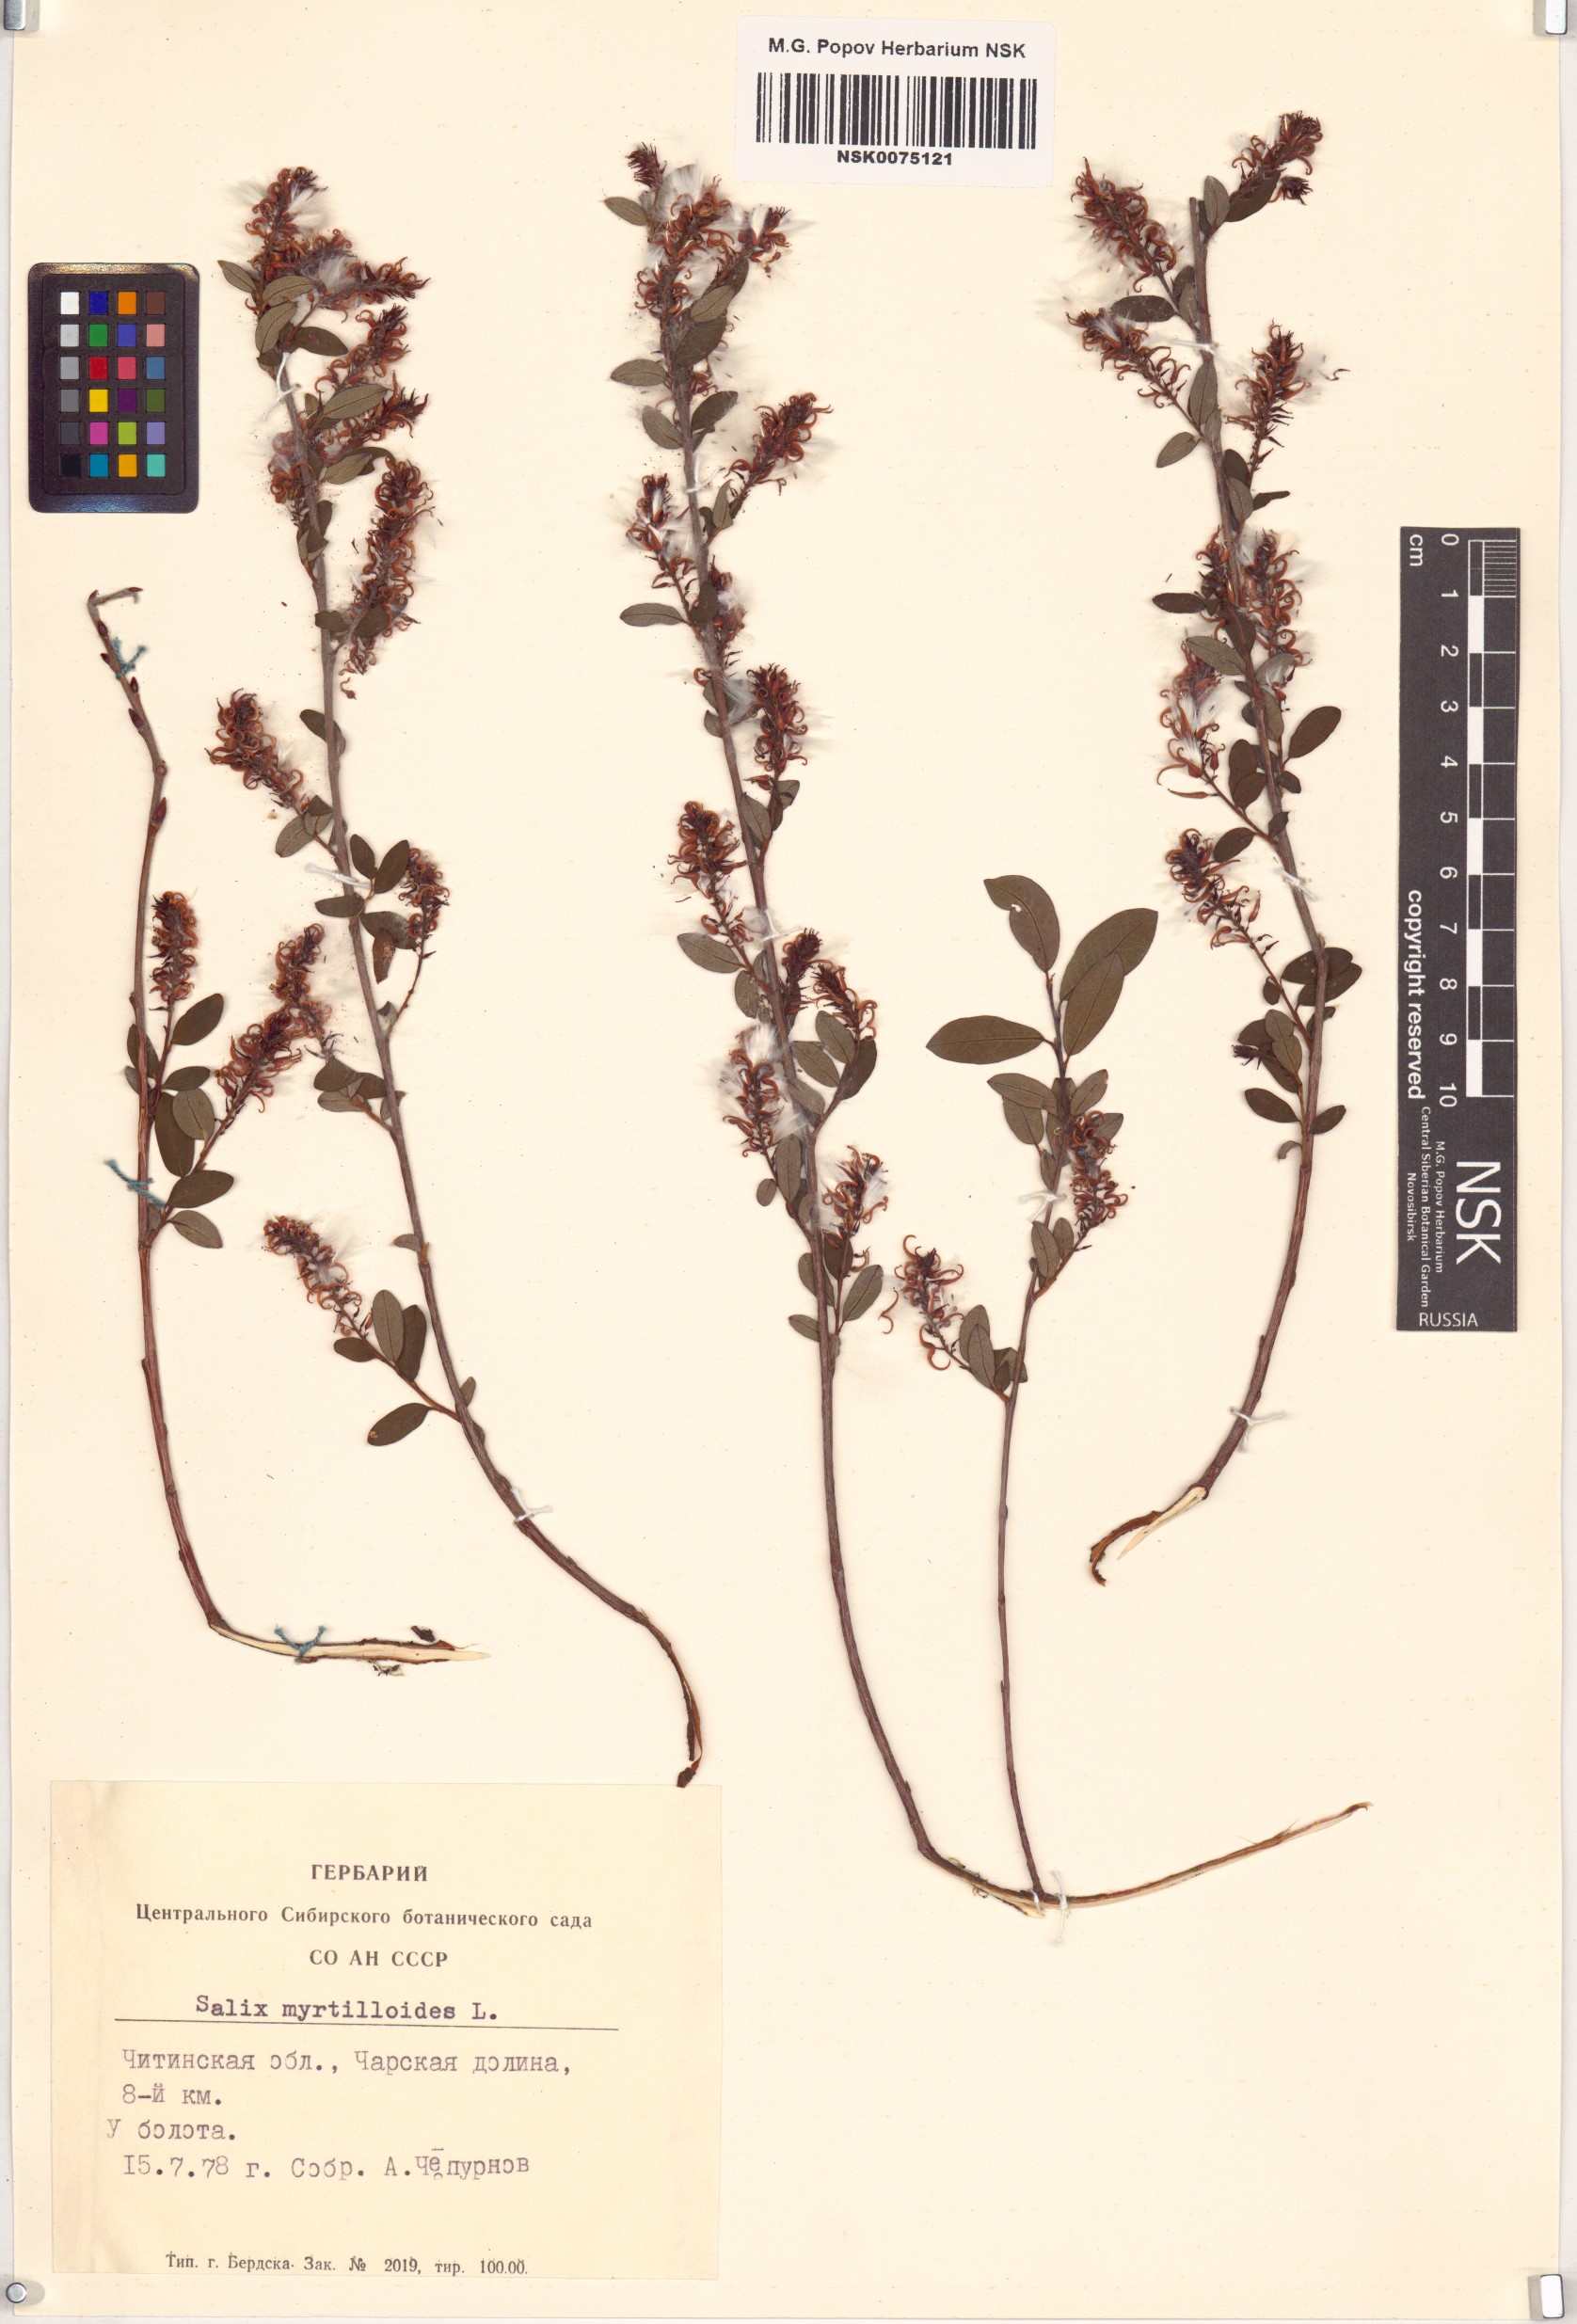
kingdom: Plantae
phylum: Tracheophyta
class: Magnoliopsida
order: Malpighiales
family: Salicaceae
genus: Salix
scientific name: Salix myrtilloides
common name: Myrtle-leaved willow
